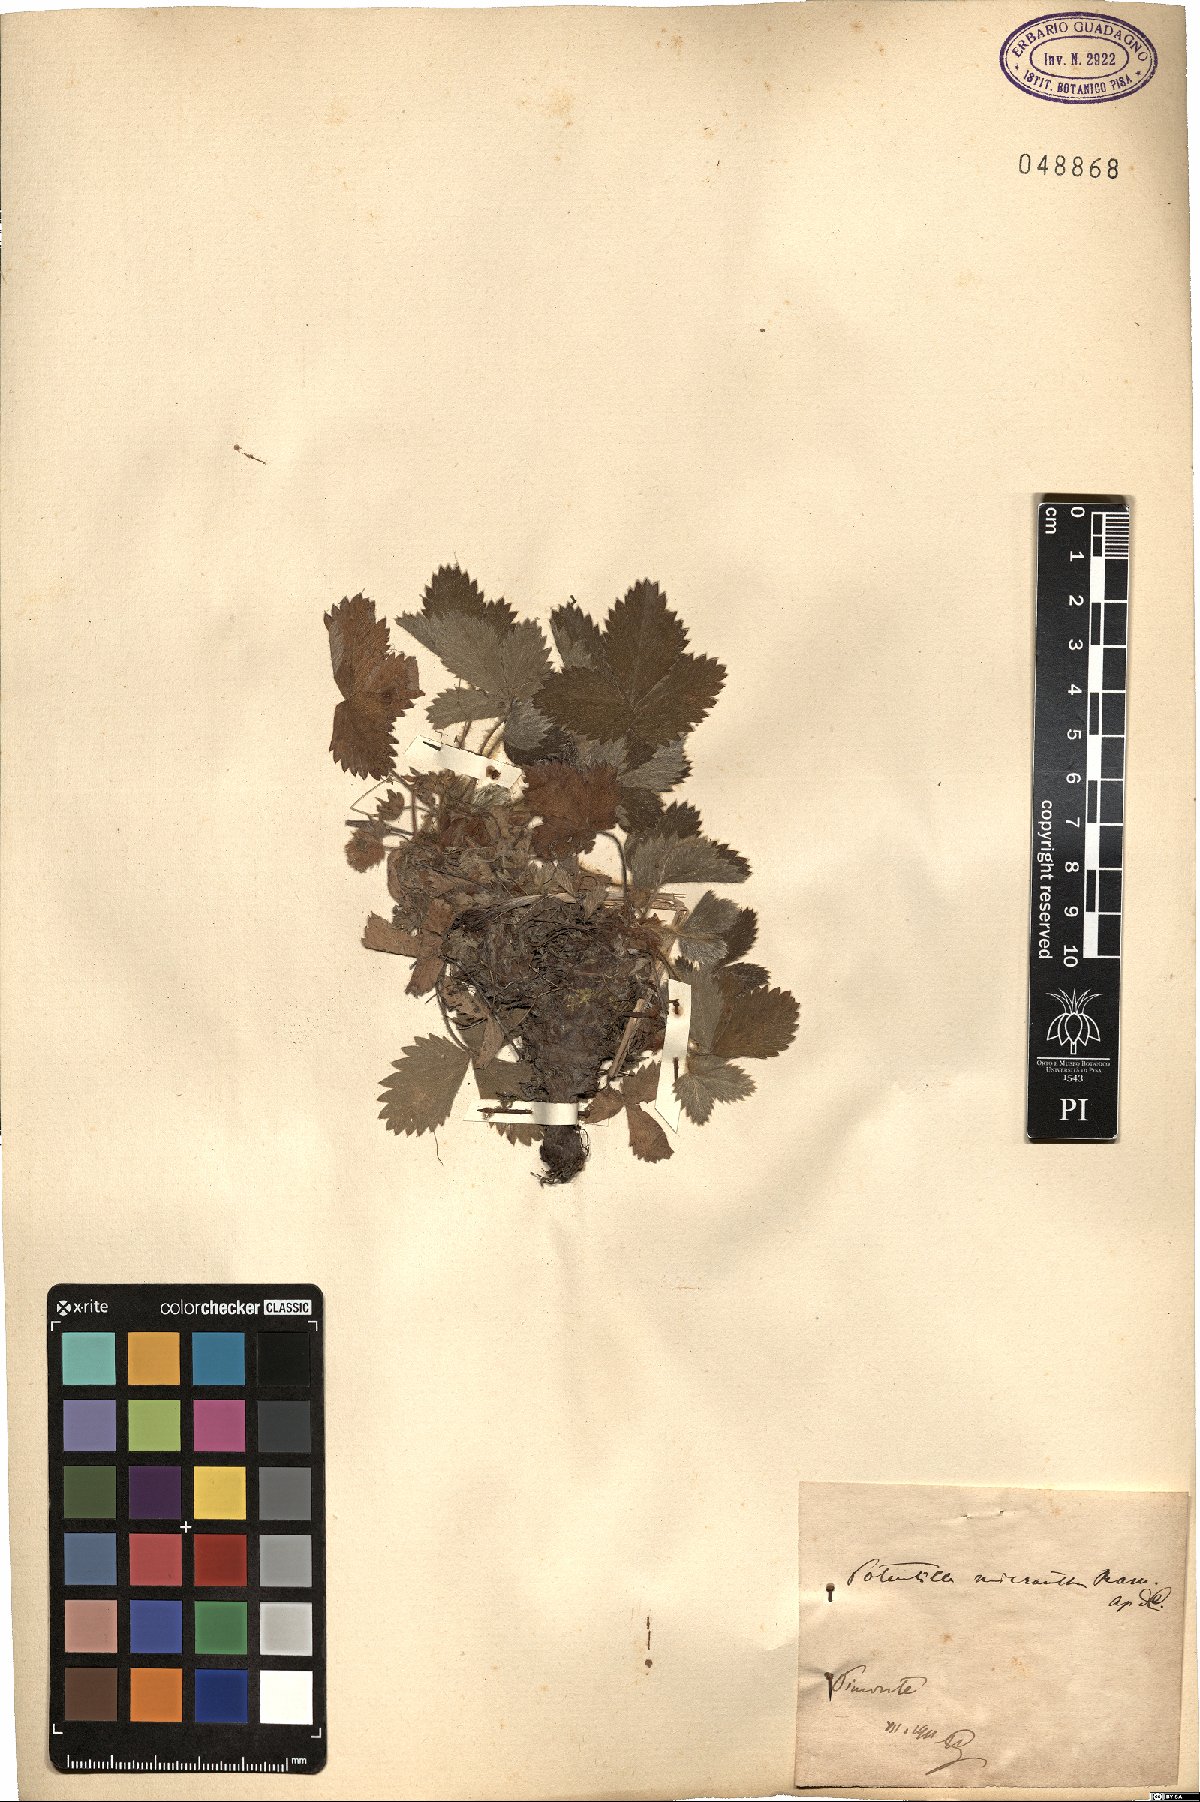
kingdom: Plantae
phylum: Tracheophyta
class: Magnoliopsida
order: Rosales
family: Rosaceae
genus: Potentilla
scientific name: Potentilla micrantha
